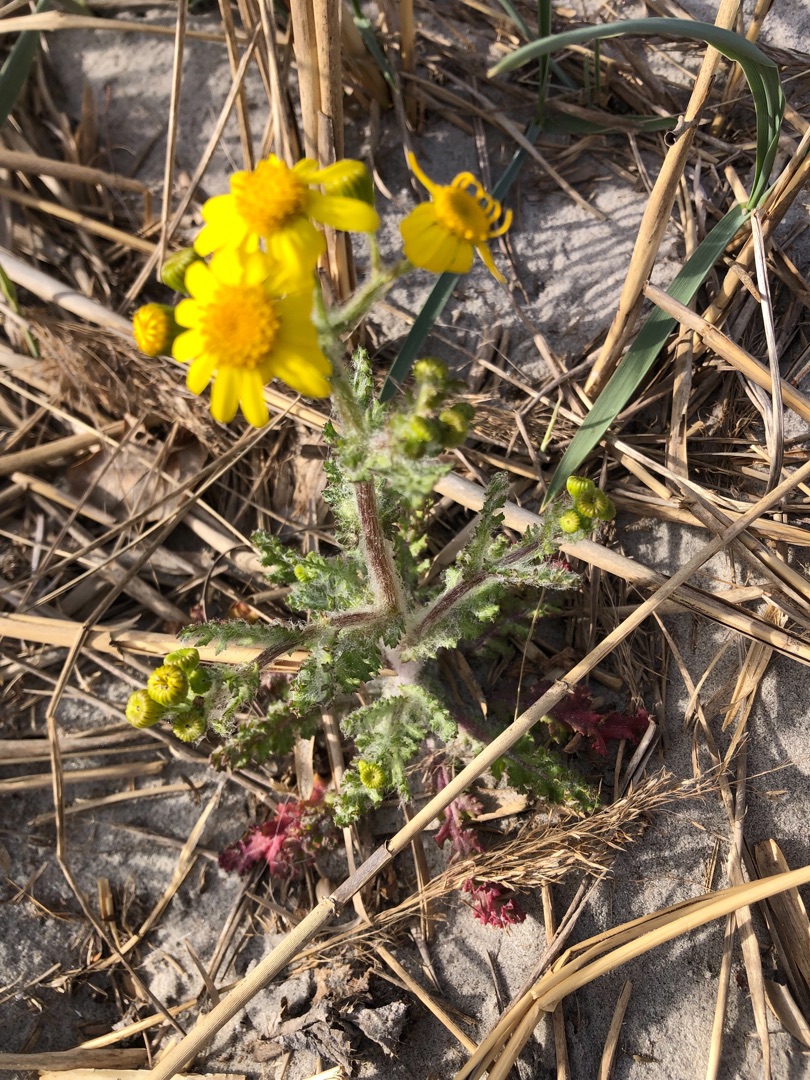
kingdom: Plantae
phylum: Tracheophyta
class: Magnoliopsida
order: Asterales
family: Asteraceae
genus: Senecio
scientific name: Senecio leucanthemifolius
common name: Vår-brandbæger
